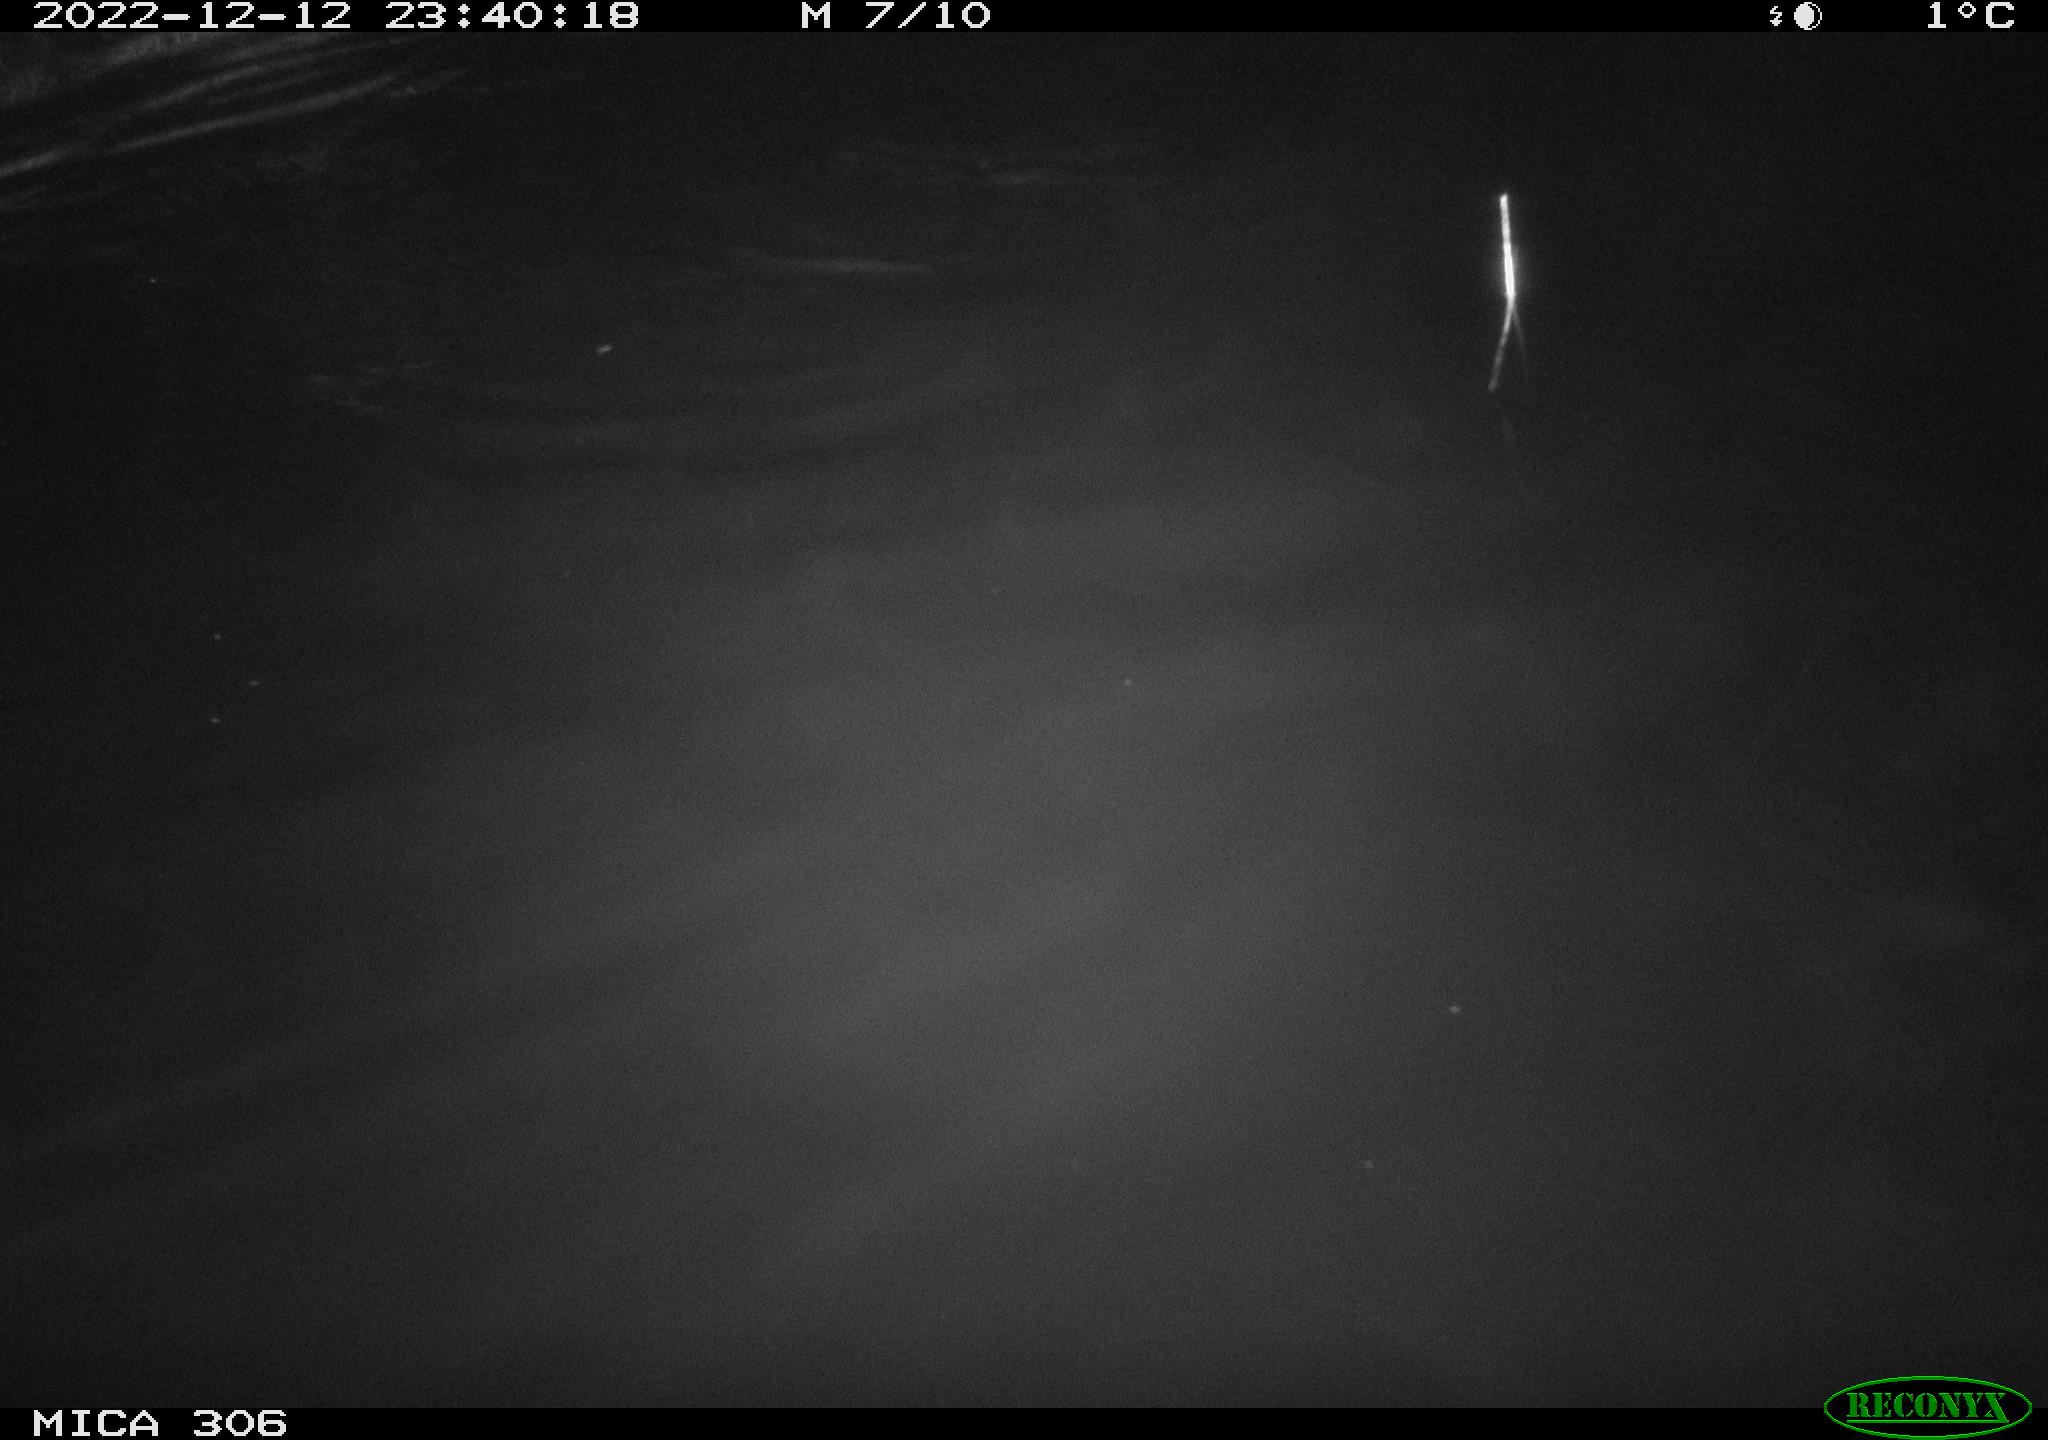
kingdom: Animalia
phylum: Chordata
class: Aves
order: Anseriformes
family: Anatidae
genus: Anas
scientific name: Anas
